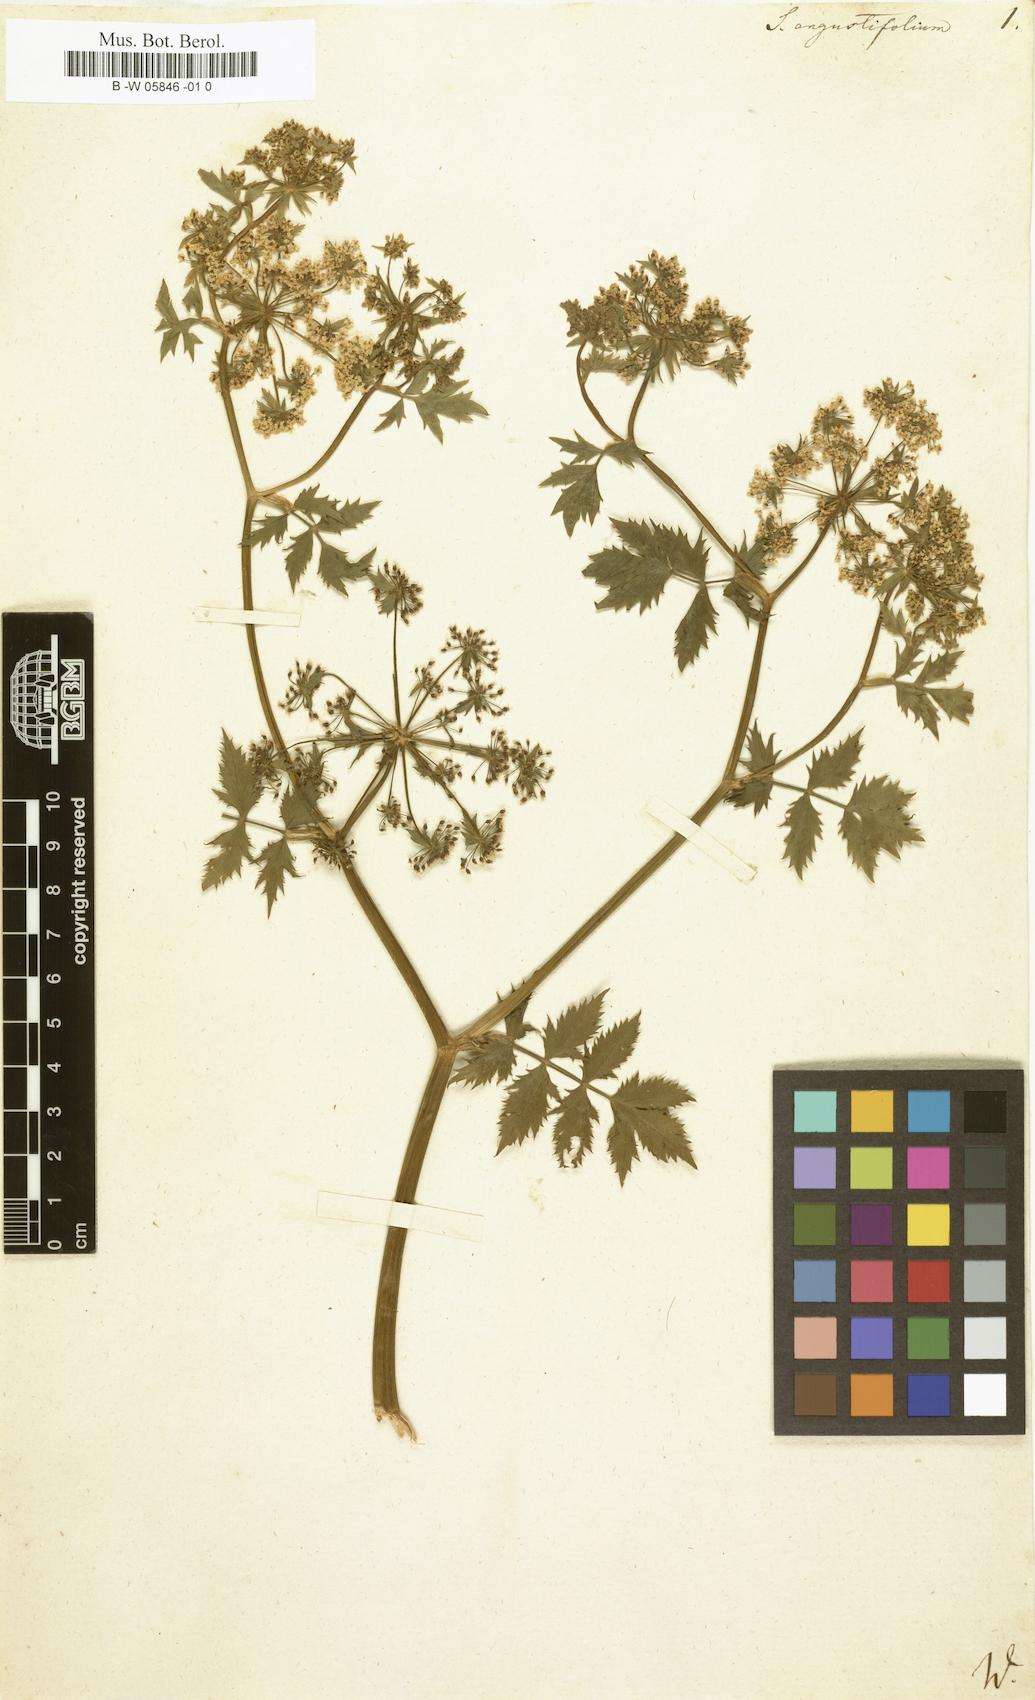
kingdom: Plantae
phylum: Tracheophyta
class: Magnoliopsida
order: Apiales
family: Apiaceae
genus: Berula
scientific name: Berula erecta
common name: Lesser water-parsnip
